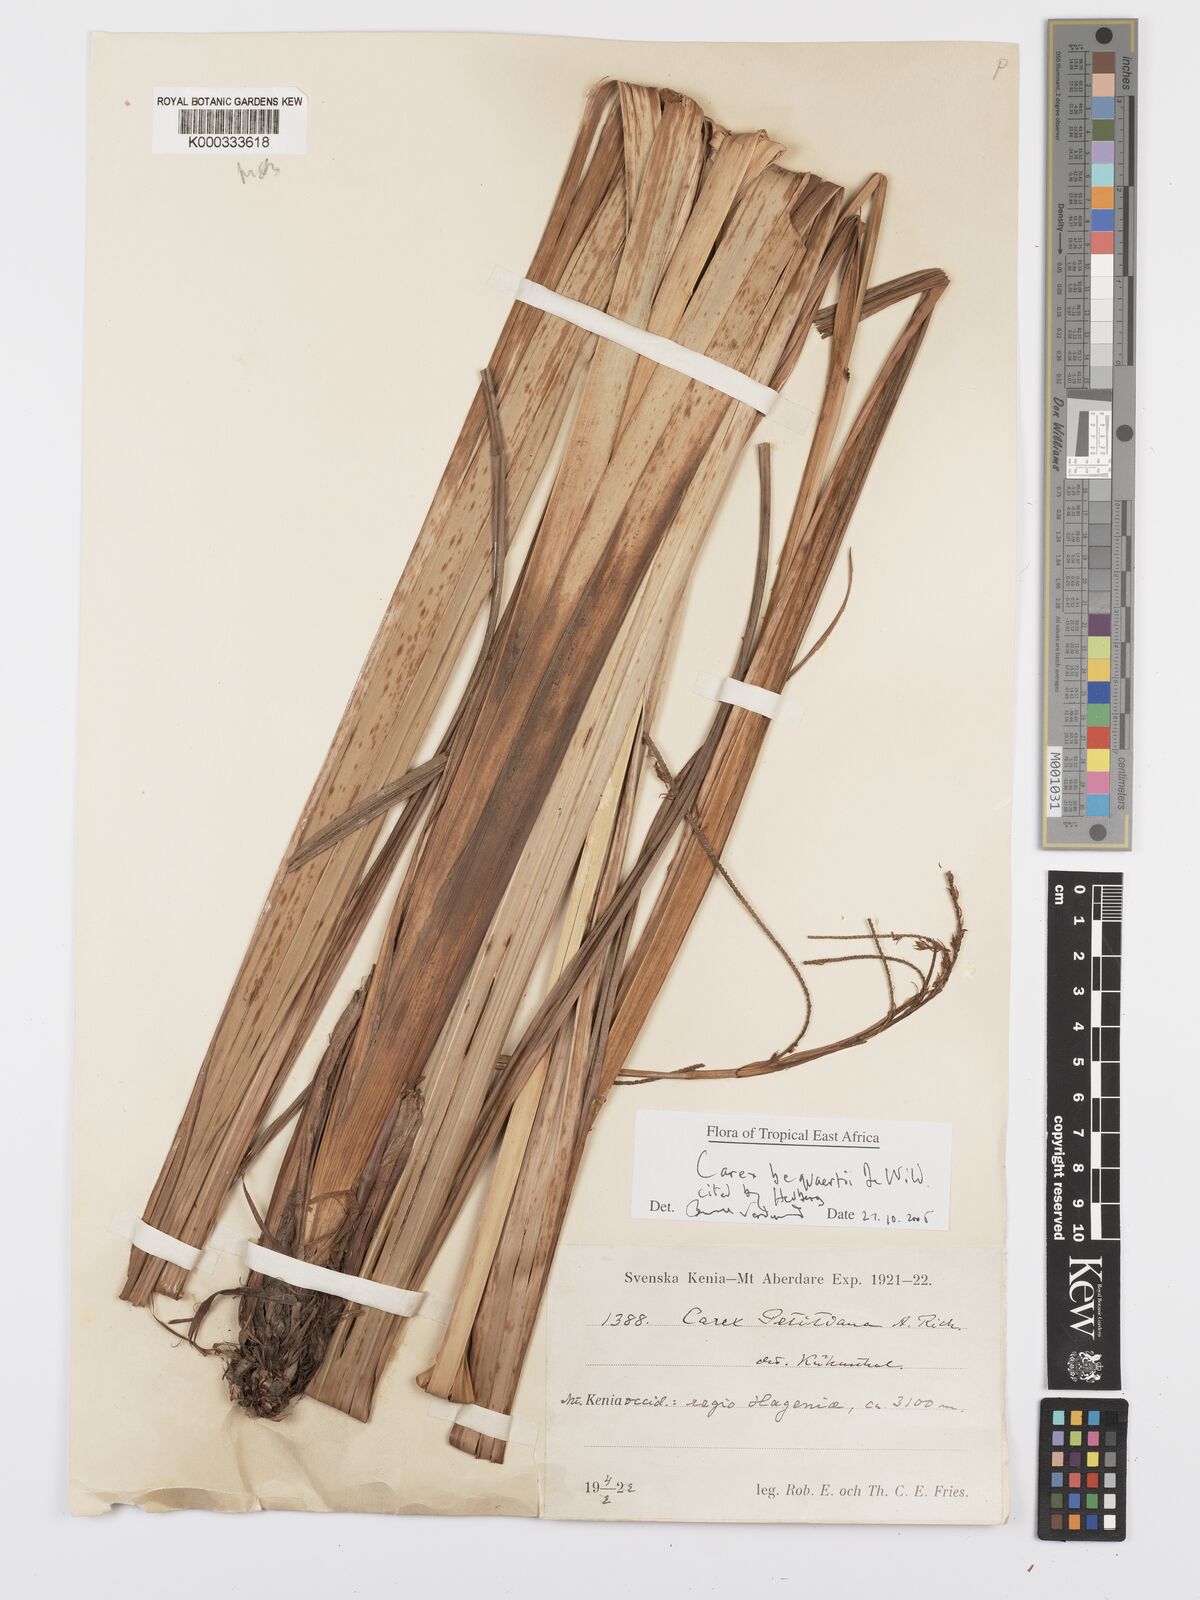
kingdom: Plantae
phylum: Tracheophyta
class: Liliopsida
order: Poales
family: Cyperaceae
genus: Carex
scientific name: Carex bequaertii
